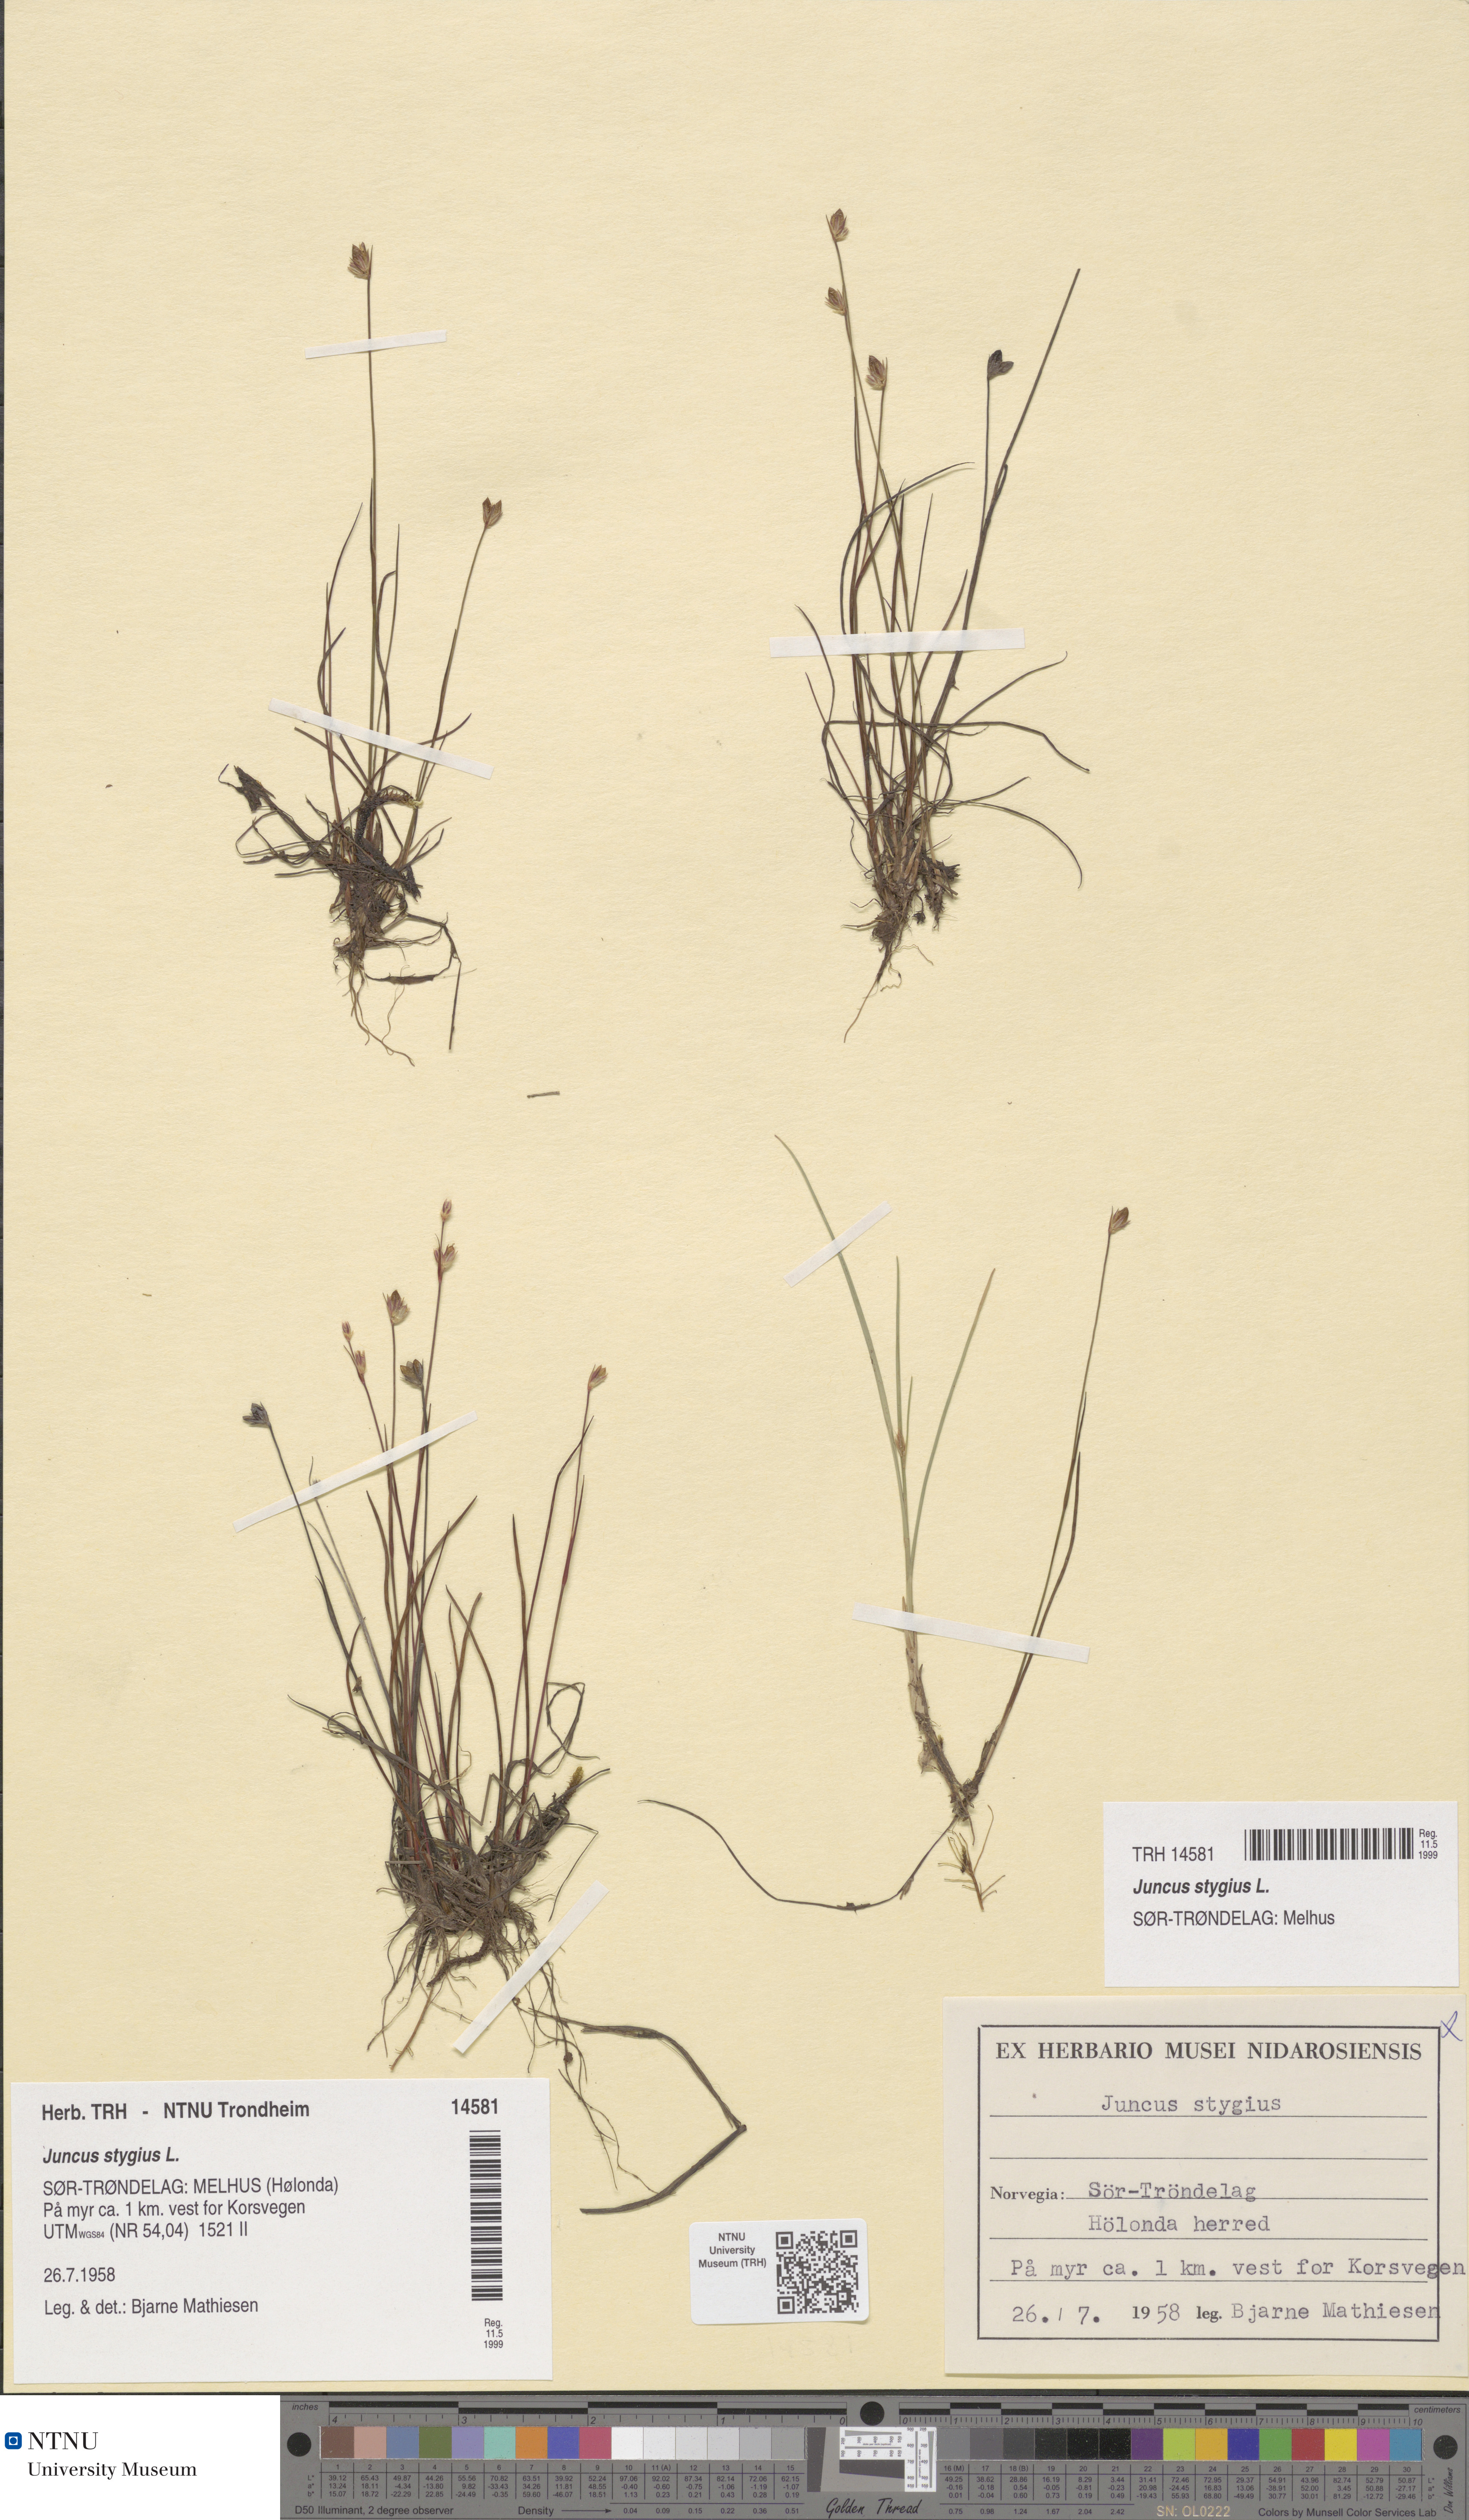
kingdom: Plantae
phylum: Tracheophyta
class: Liliopsida
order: Poales
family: Juncaceae
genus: Juncus
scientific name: Juncus stygius
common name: Bog rush
